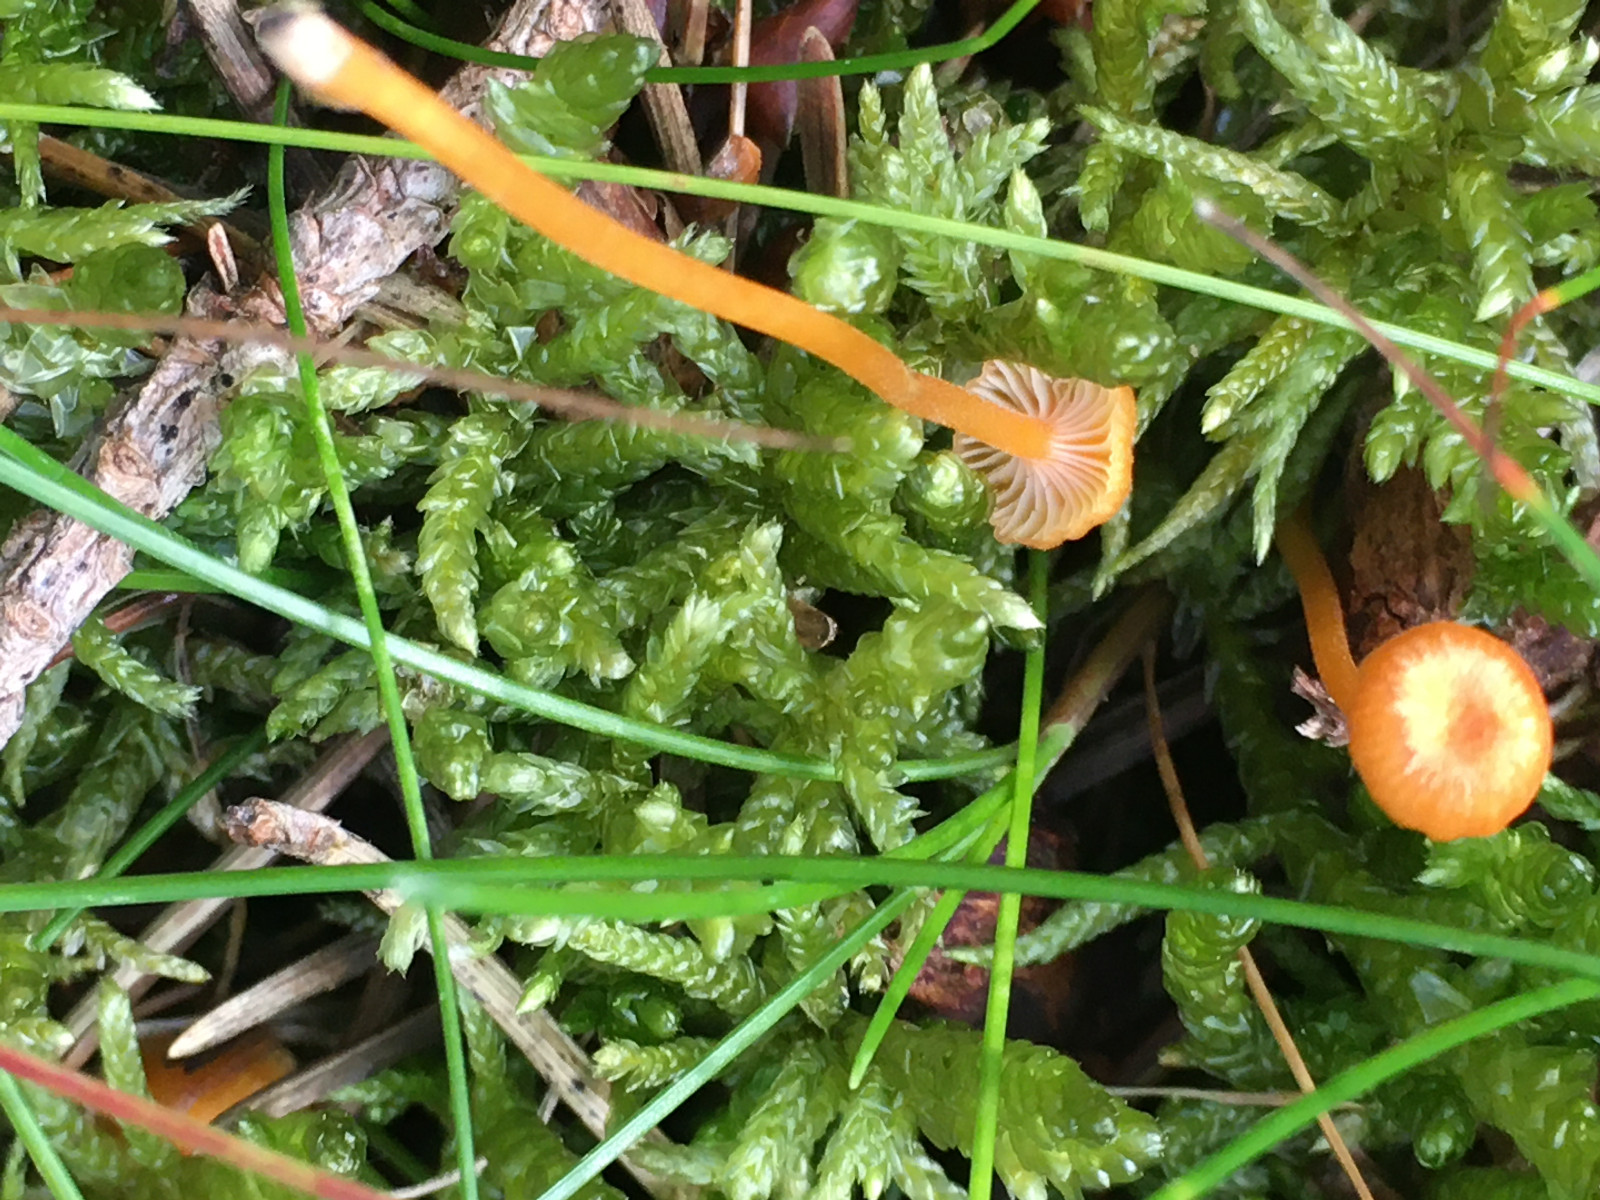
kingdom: Fungi
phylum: Basidiomycota
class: Agaricomycetes
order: Hymenochaetales
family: Rickenellaceae
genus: Rickenella
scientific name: Rickenella fibula
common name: orange mosnavlehat
